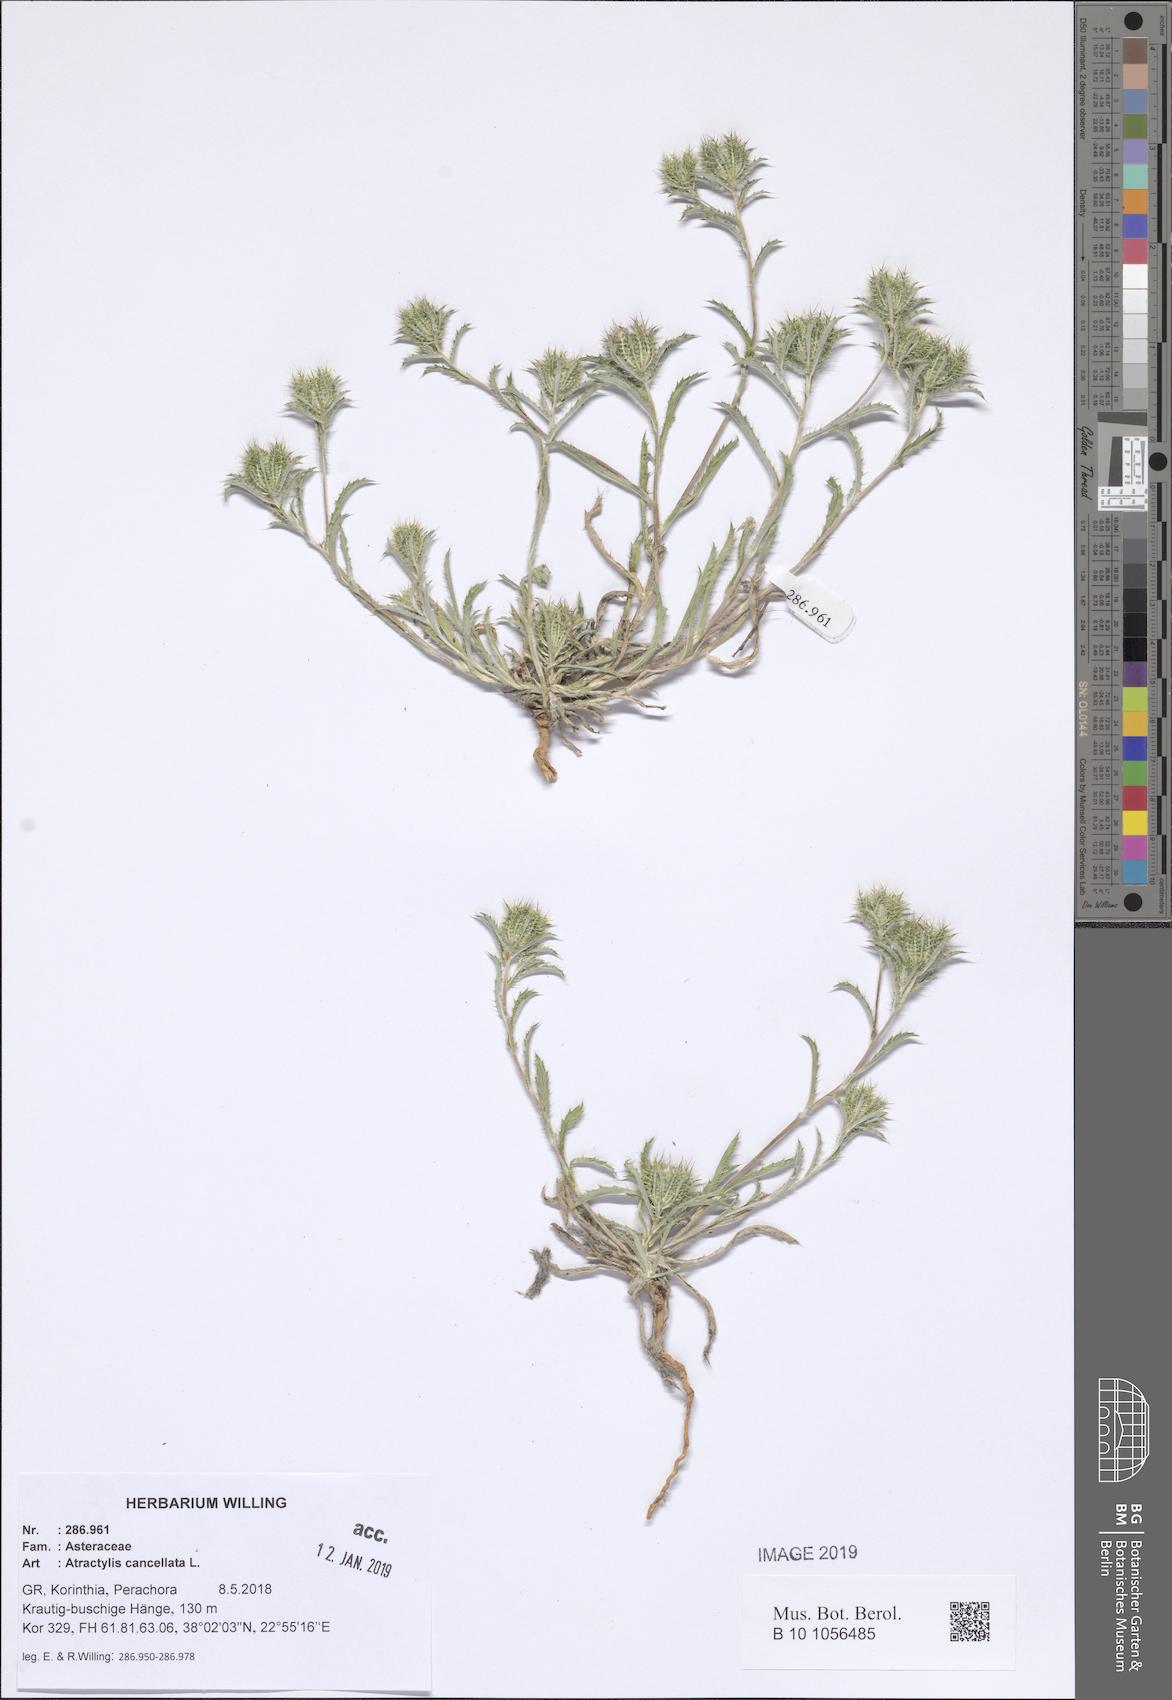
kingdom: Plantae
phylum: Tracheophyta
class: Magnoliopsida
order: Asterales
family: Asteraceae
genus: Atractylis
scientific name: Atractylis cancellata
